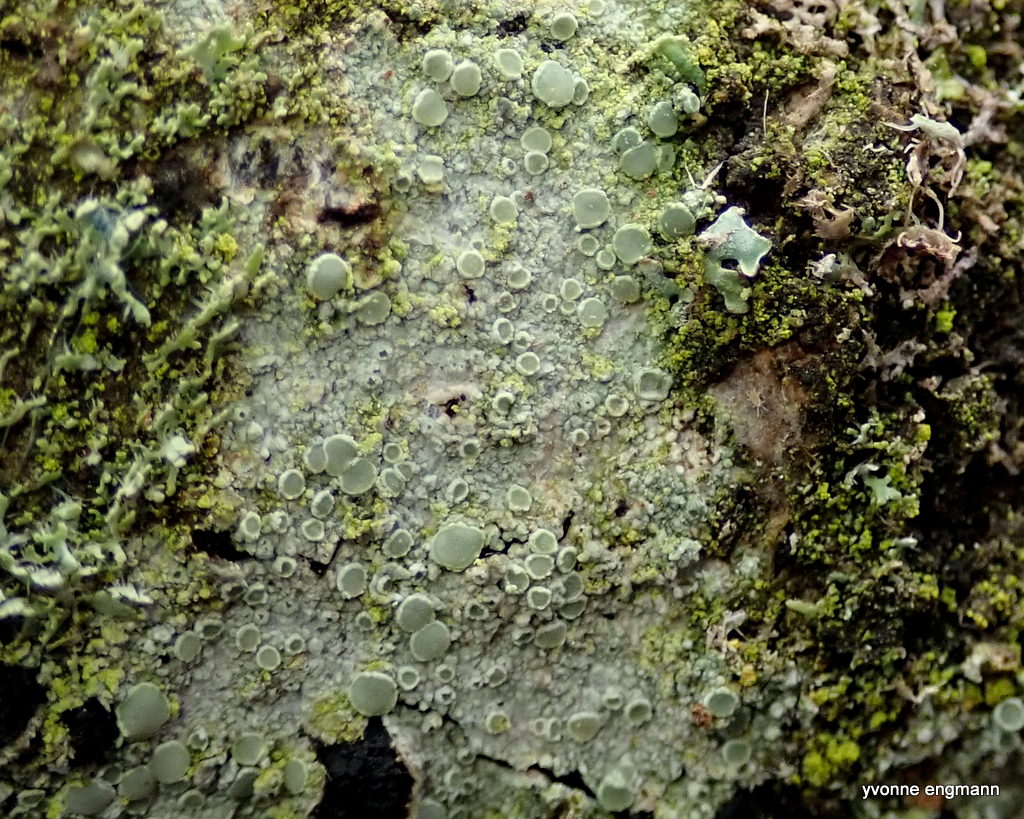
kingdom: Fungi
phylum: Ascomycota
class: Lecanoromycetes
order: Lecanorales
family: Lecanoraceae
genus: Lecanora
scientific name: Lecanora chlarotera
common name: brun kantskivelav
